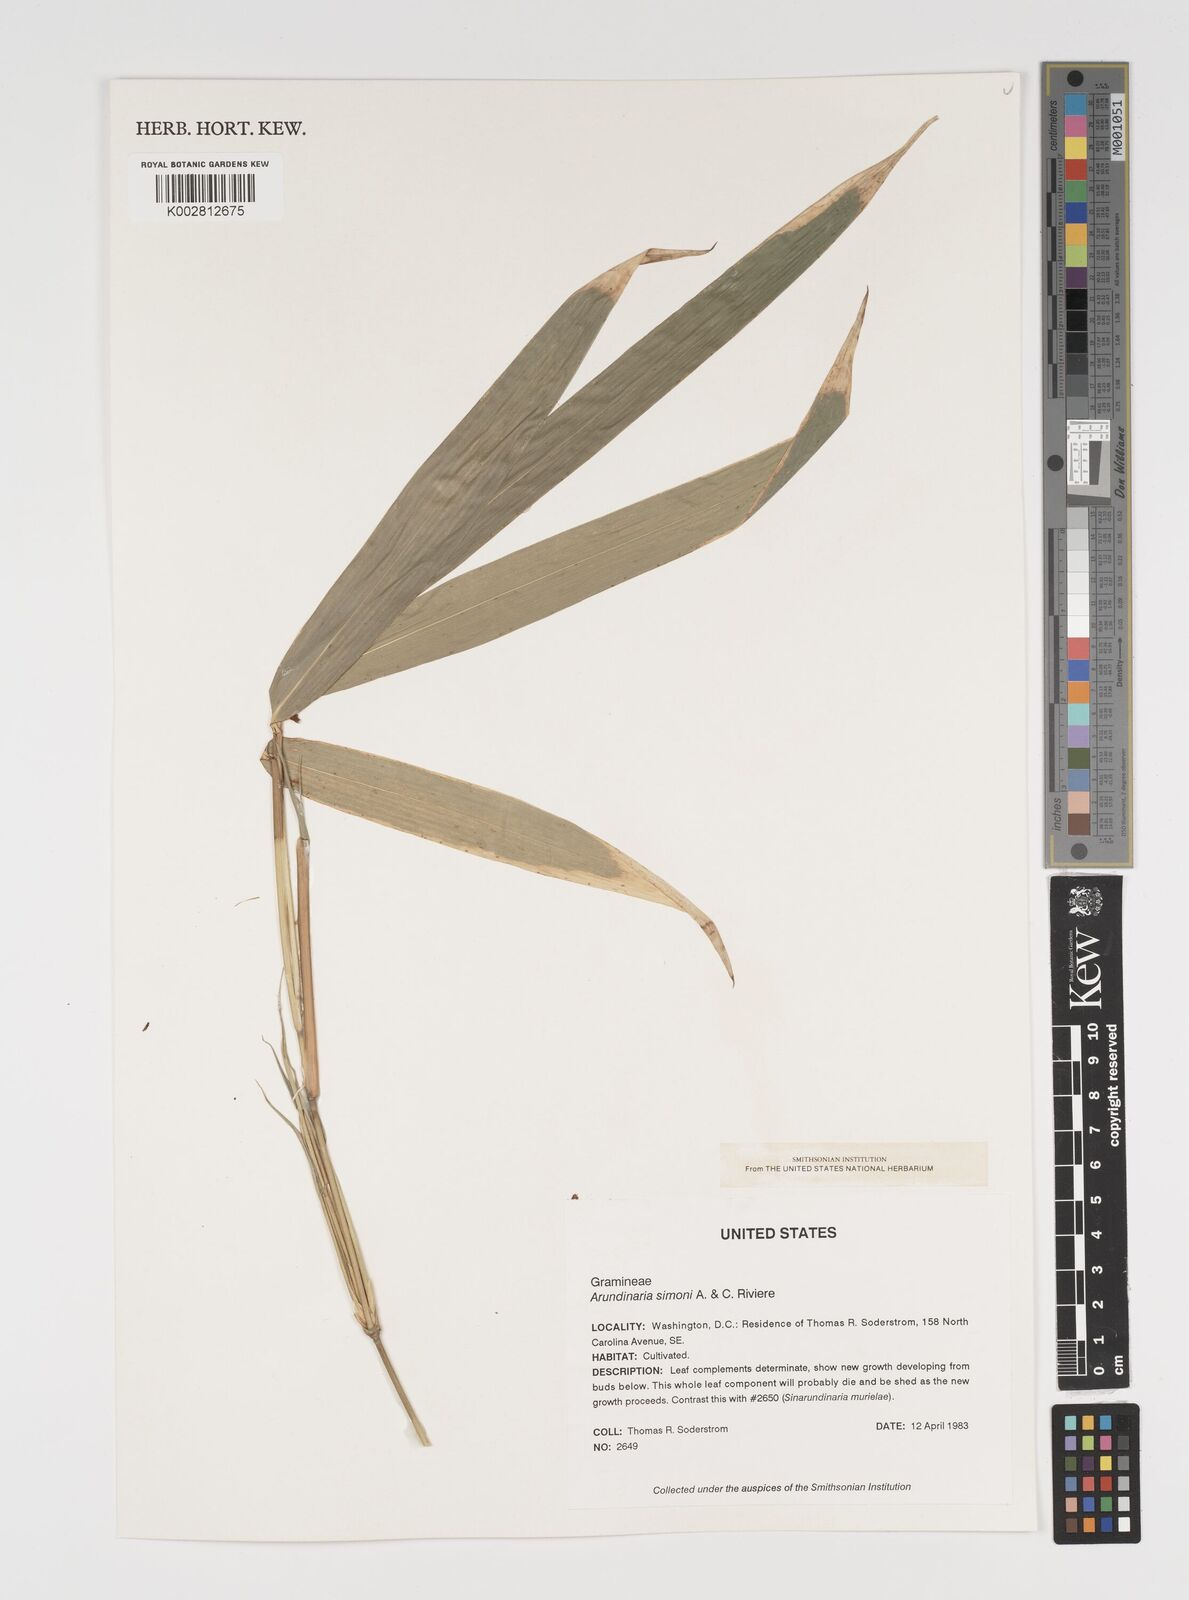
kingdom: Plantae
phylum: Tracheophyta
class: Liliopsida
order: Poales
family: Poaceae
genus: Pleioblastus
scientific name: Pleioblastus simonii
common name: Simon bamboo
